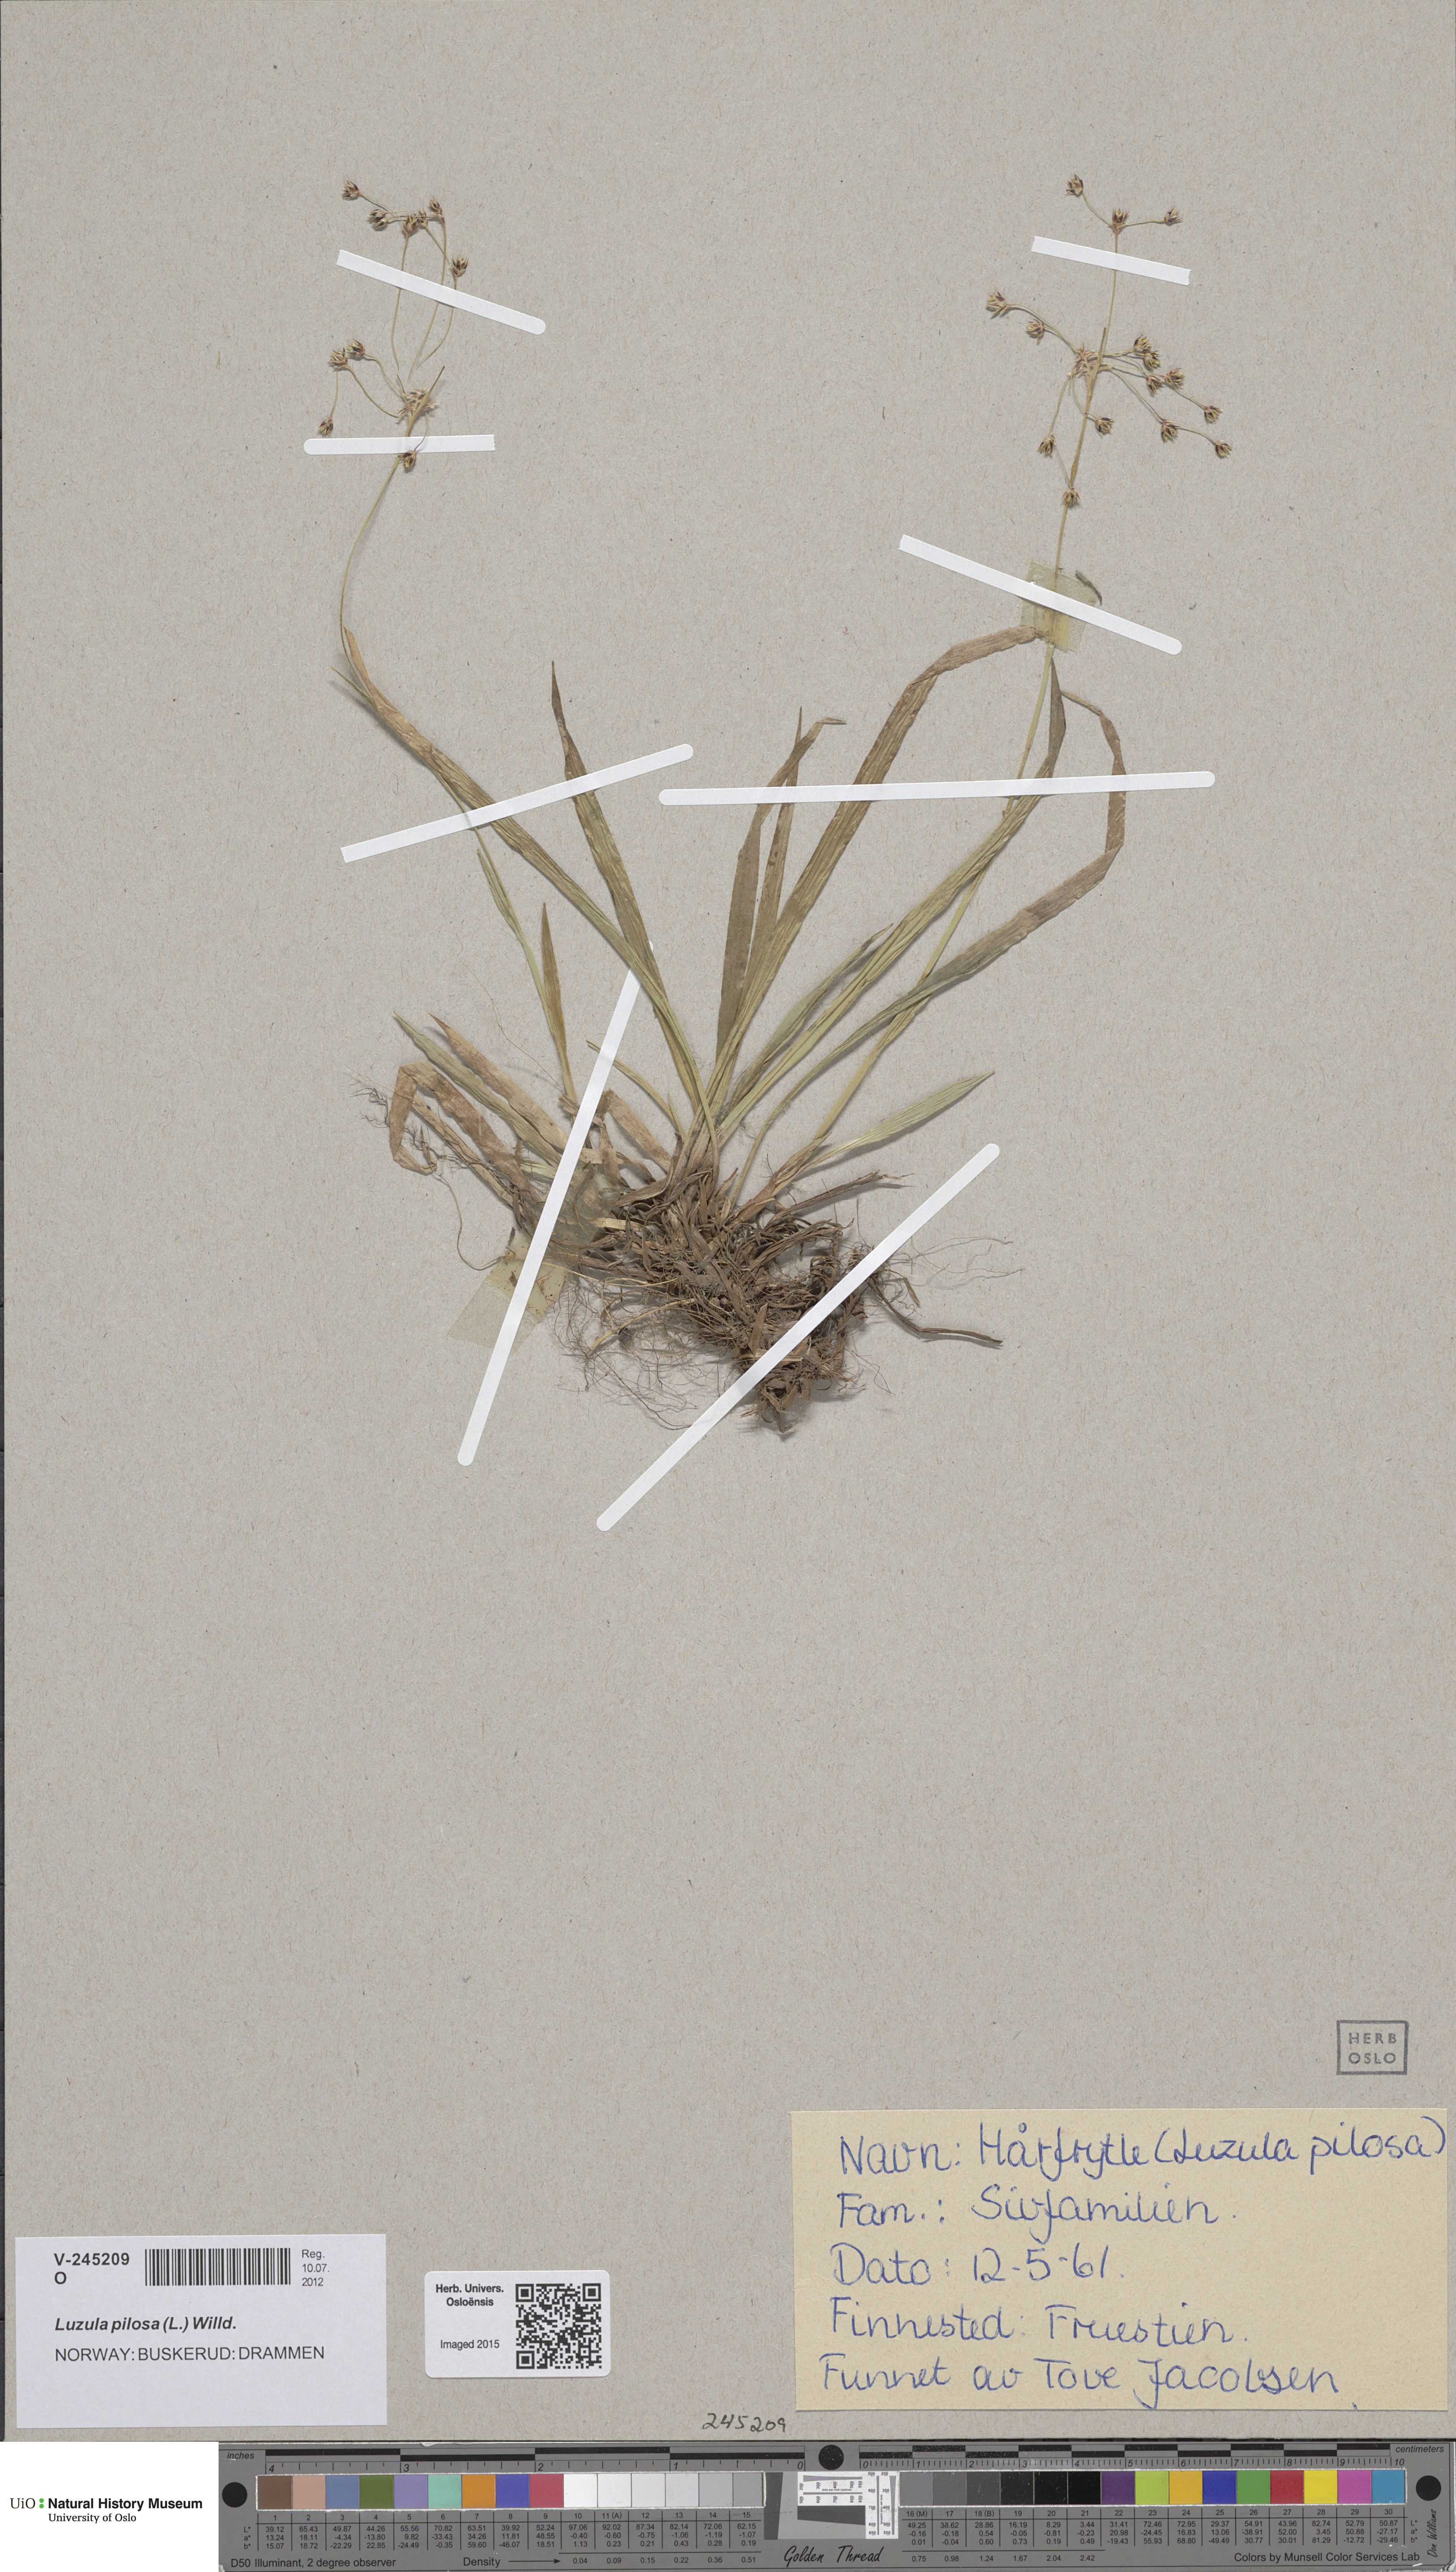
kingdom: Plantae
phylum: Tracheophyta
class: Liliopsida
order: Poales
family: Juncaceae
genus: Luzula
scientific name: Luzula pilosa
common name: Hairy wood-rush
